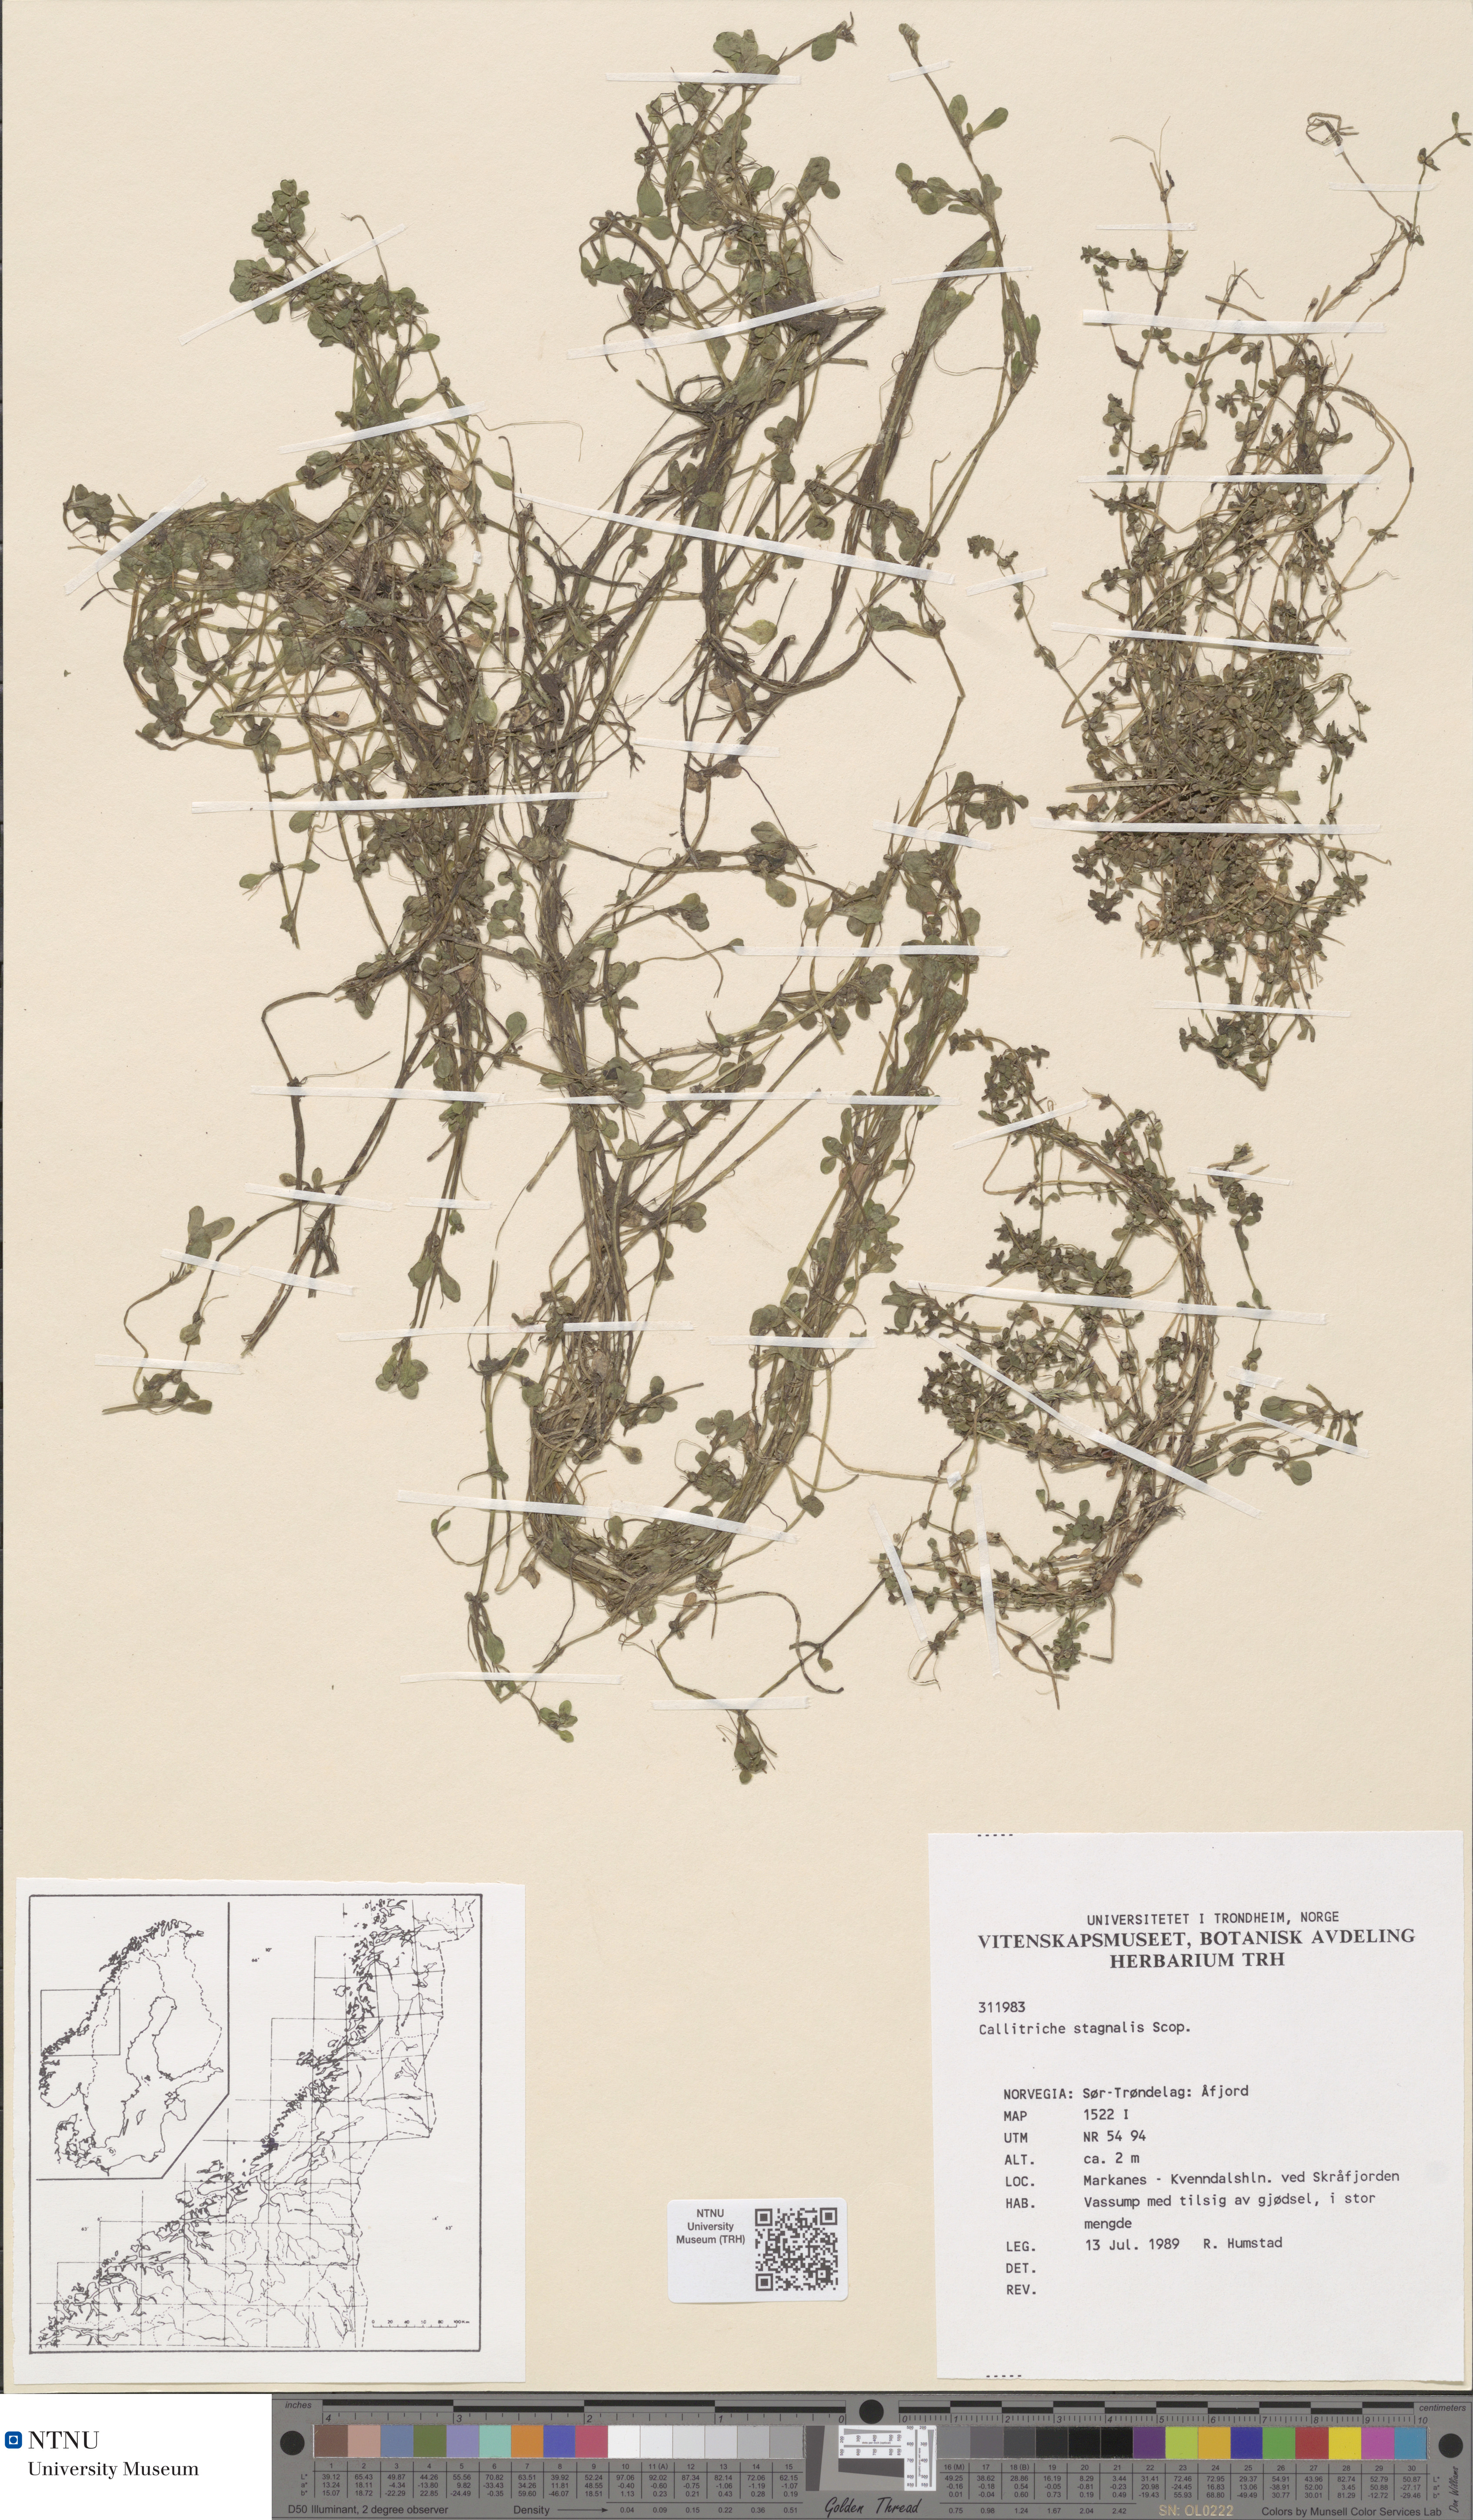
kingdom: Plantae
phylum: Tracheophyta
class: Magnoliopsida
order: Lamiales
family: Plantaginaceae
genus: Callitriche
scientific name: Callitriche stagnalis
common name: Common water-starwort
